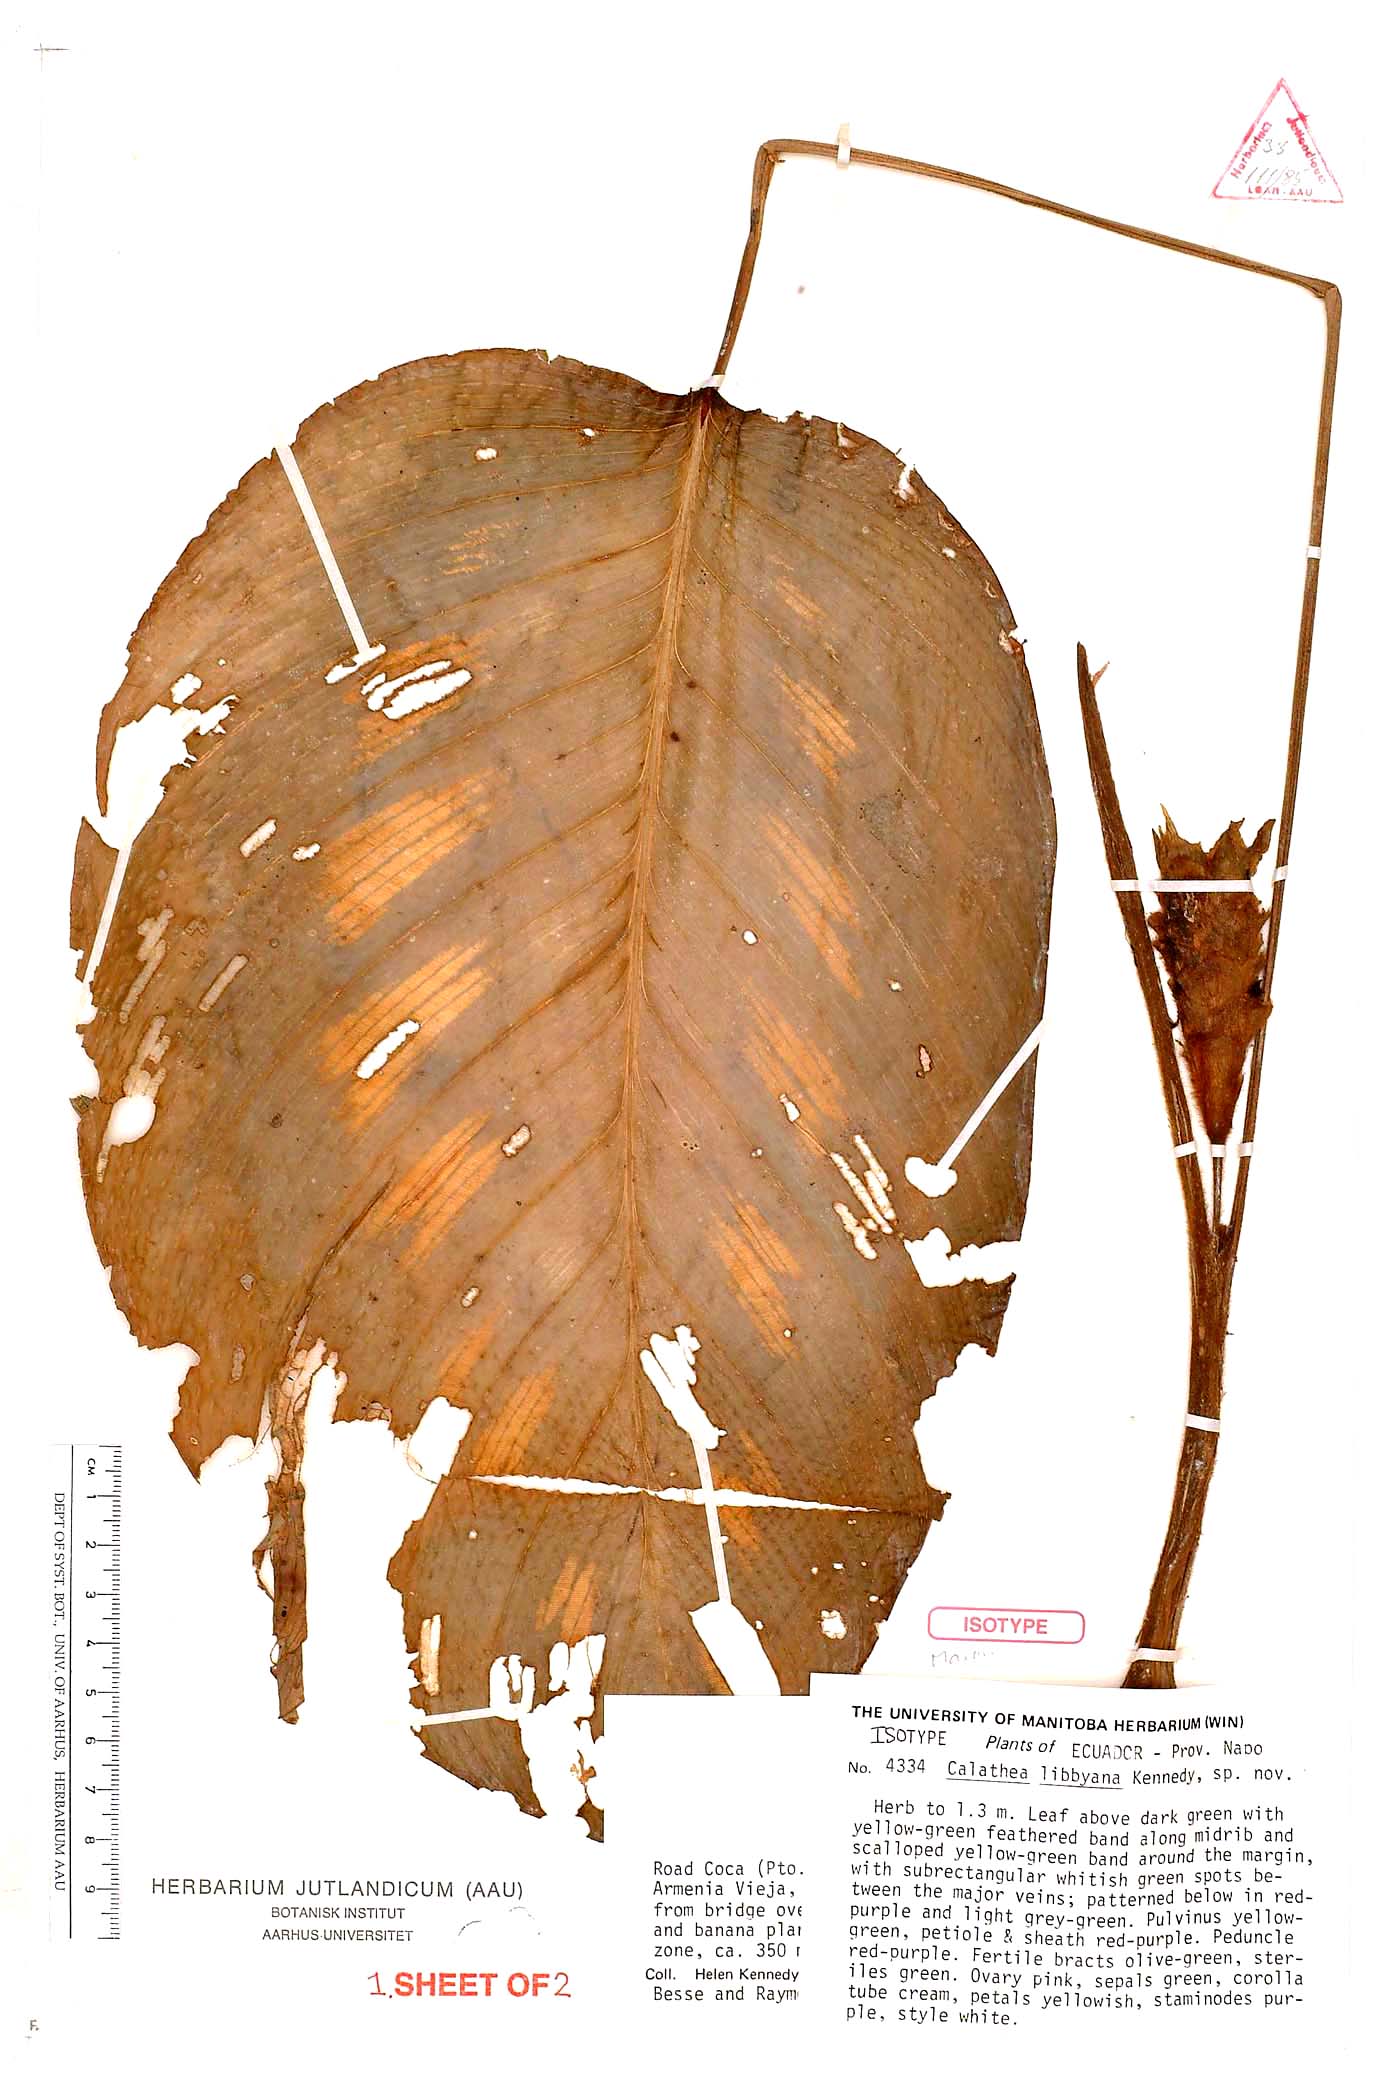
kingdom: Plantae
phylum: Tracheophyta
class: Liliopsida
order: Zingiberales
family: Marantaceae
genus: Goeppertia
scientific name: Goeppertia libbyana
